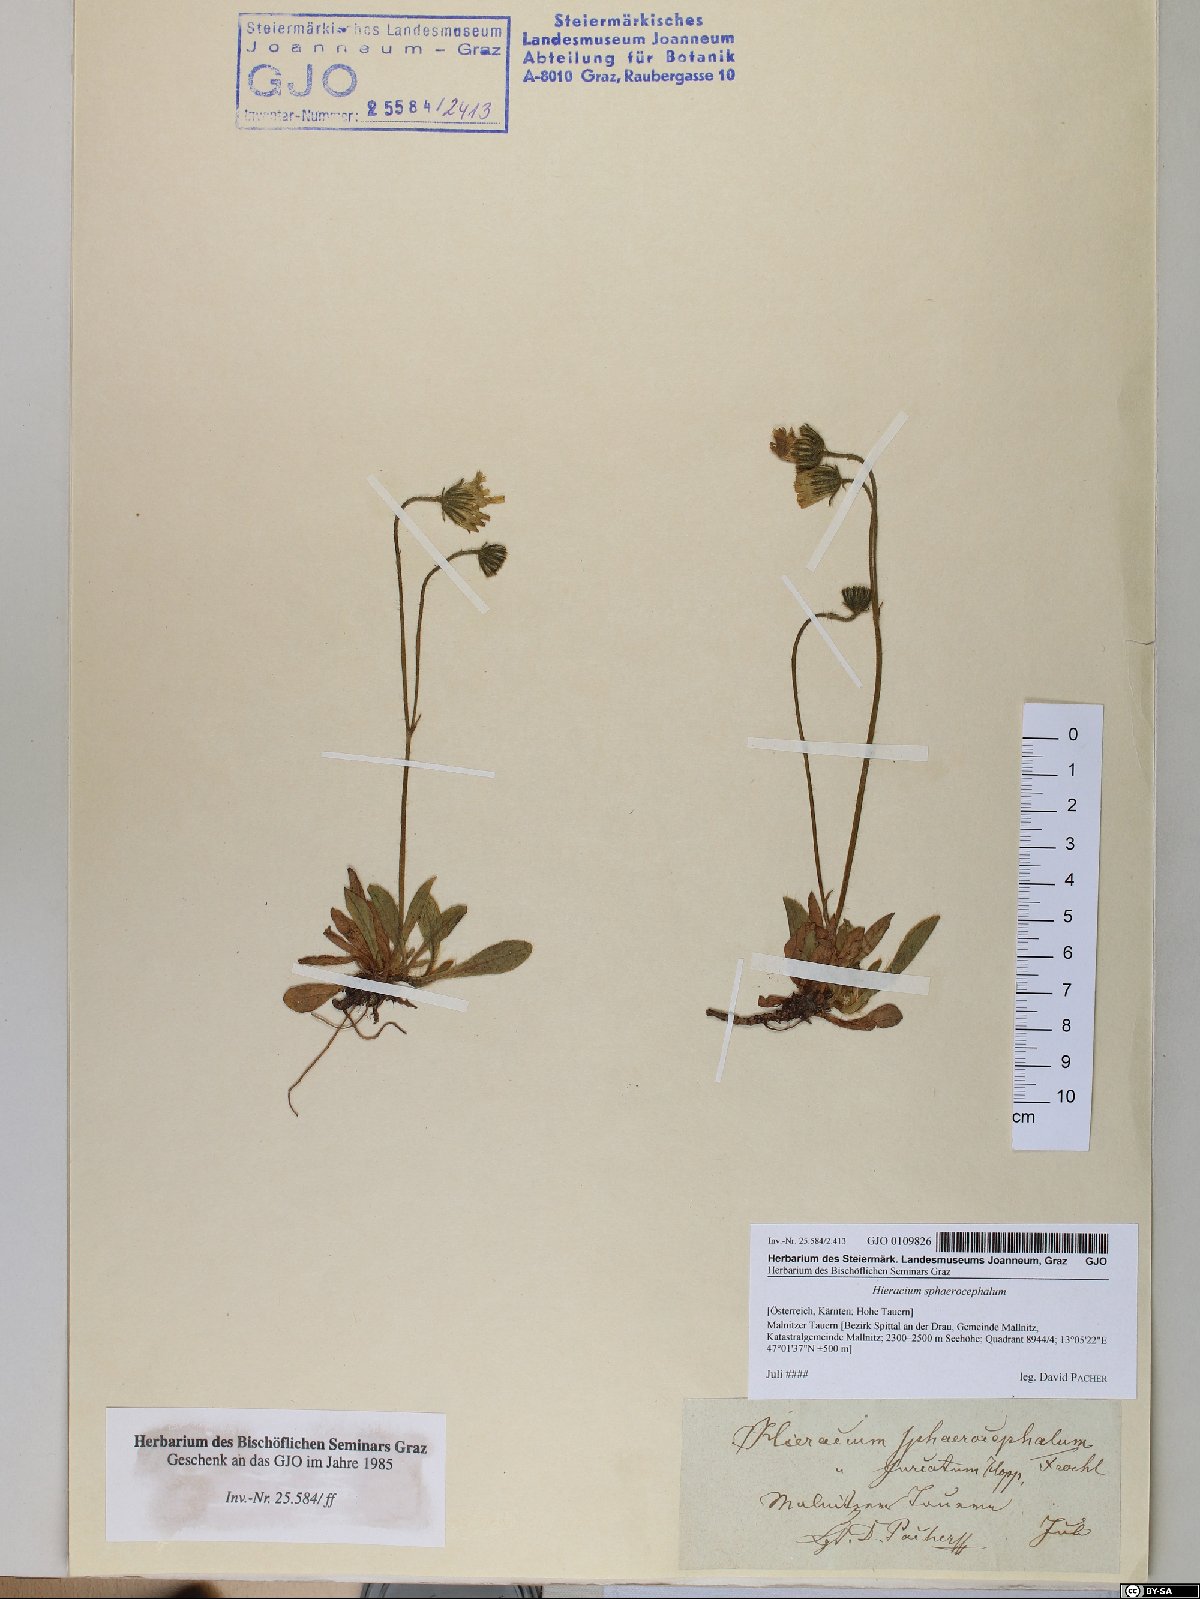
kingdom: Plantae
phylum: Tracheophyta
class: Magnoliopsida
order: Asterales
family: Asteraceae
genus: Pilosella
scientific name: Pilosella sphaerocephala
